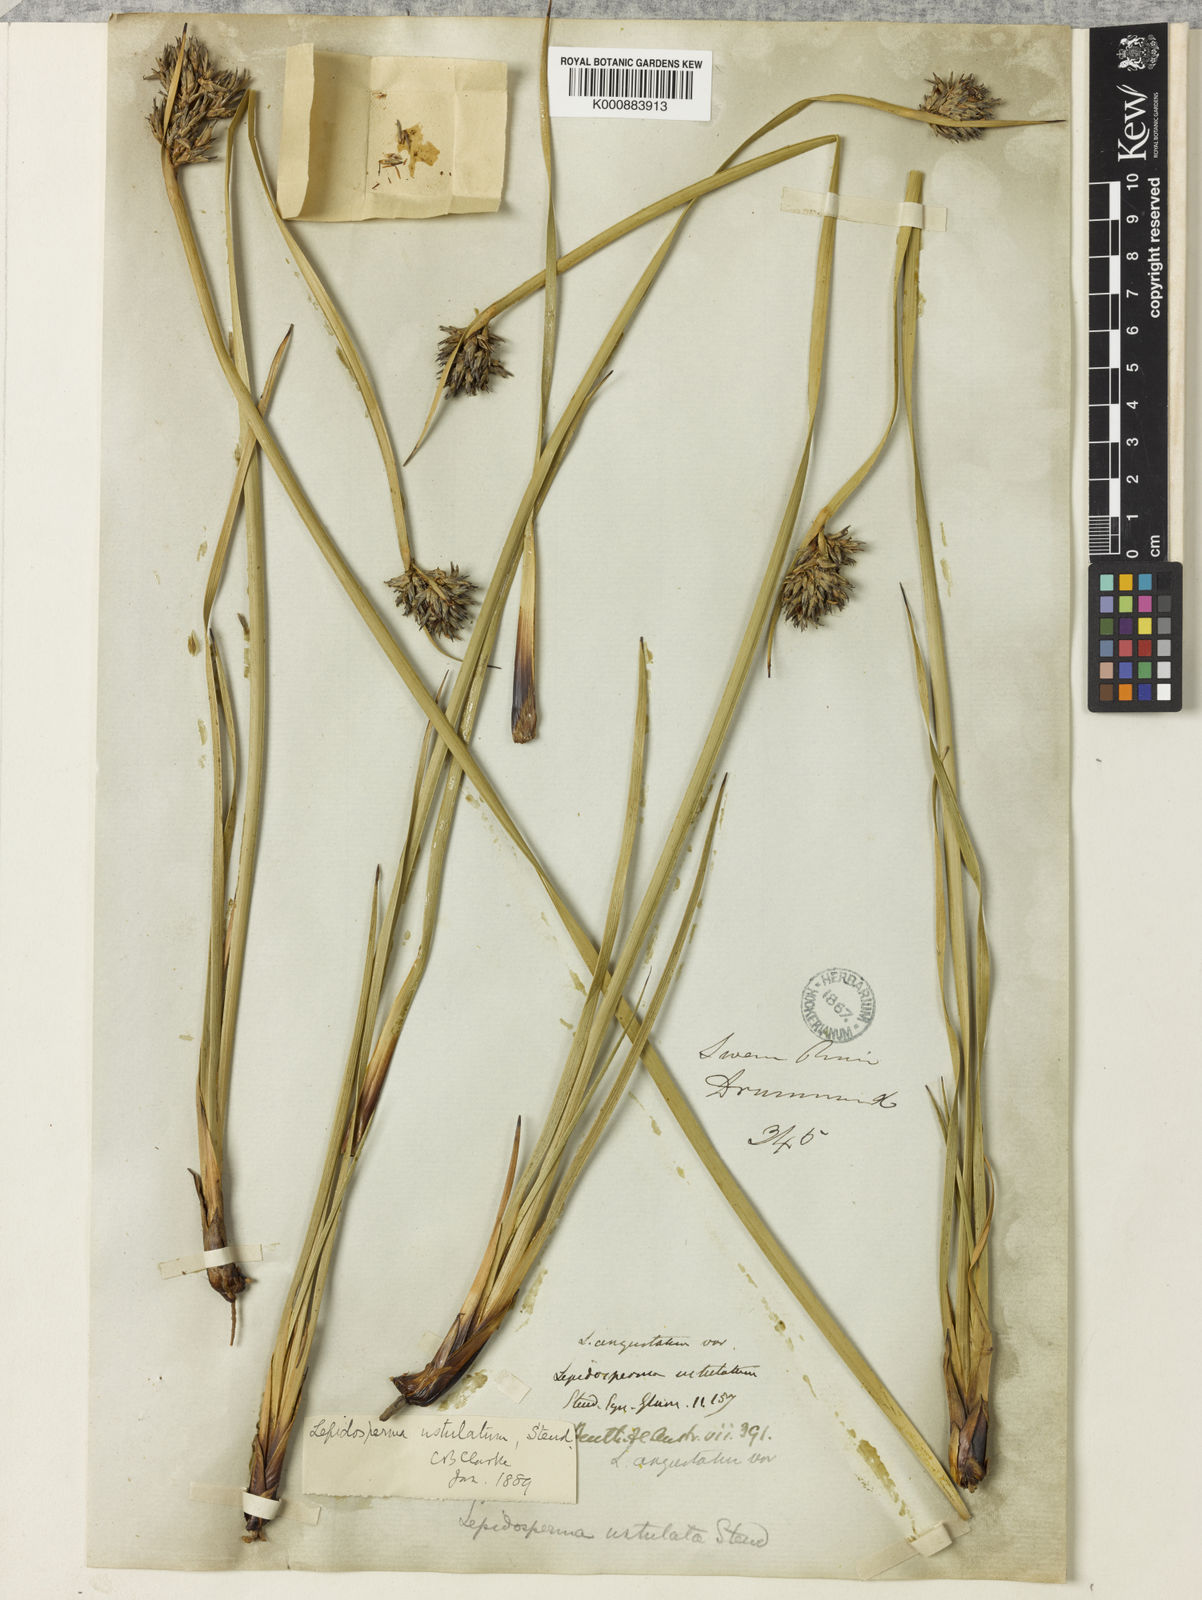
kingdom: Plantae
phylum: Tracheophyta
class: Liliopsida
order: Poales
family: Cyperaceae
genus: Lepidosperma
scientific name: Lepidosperma ustulatum
